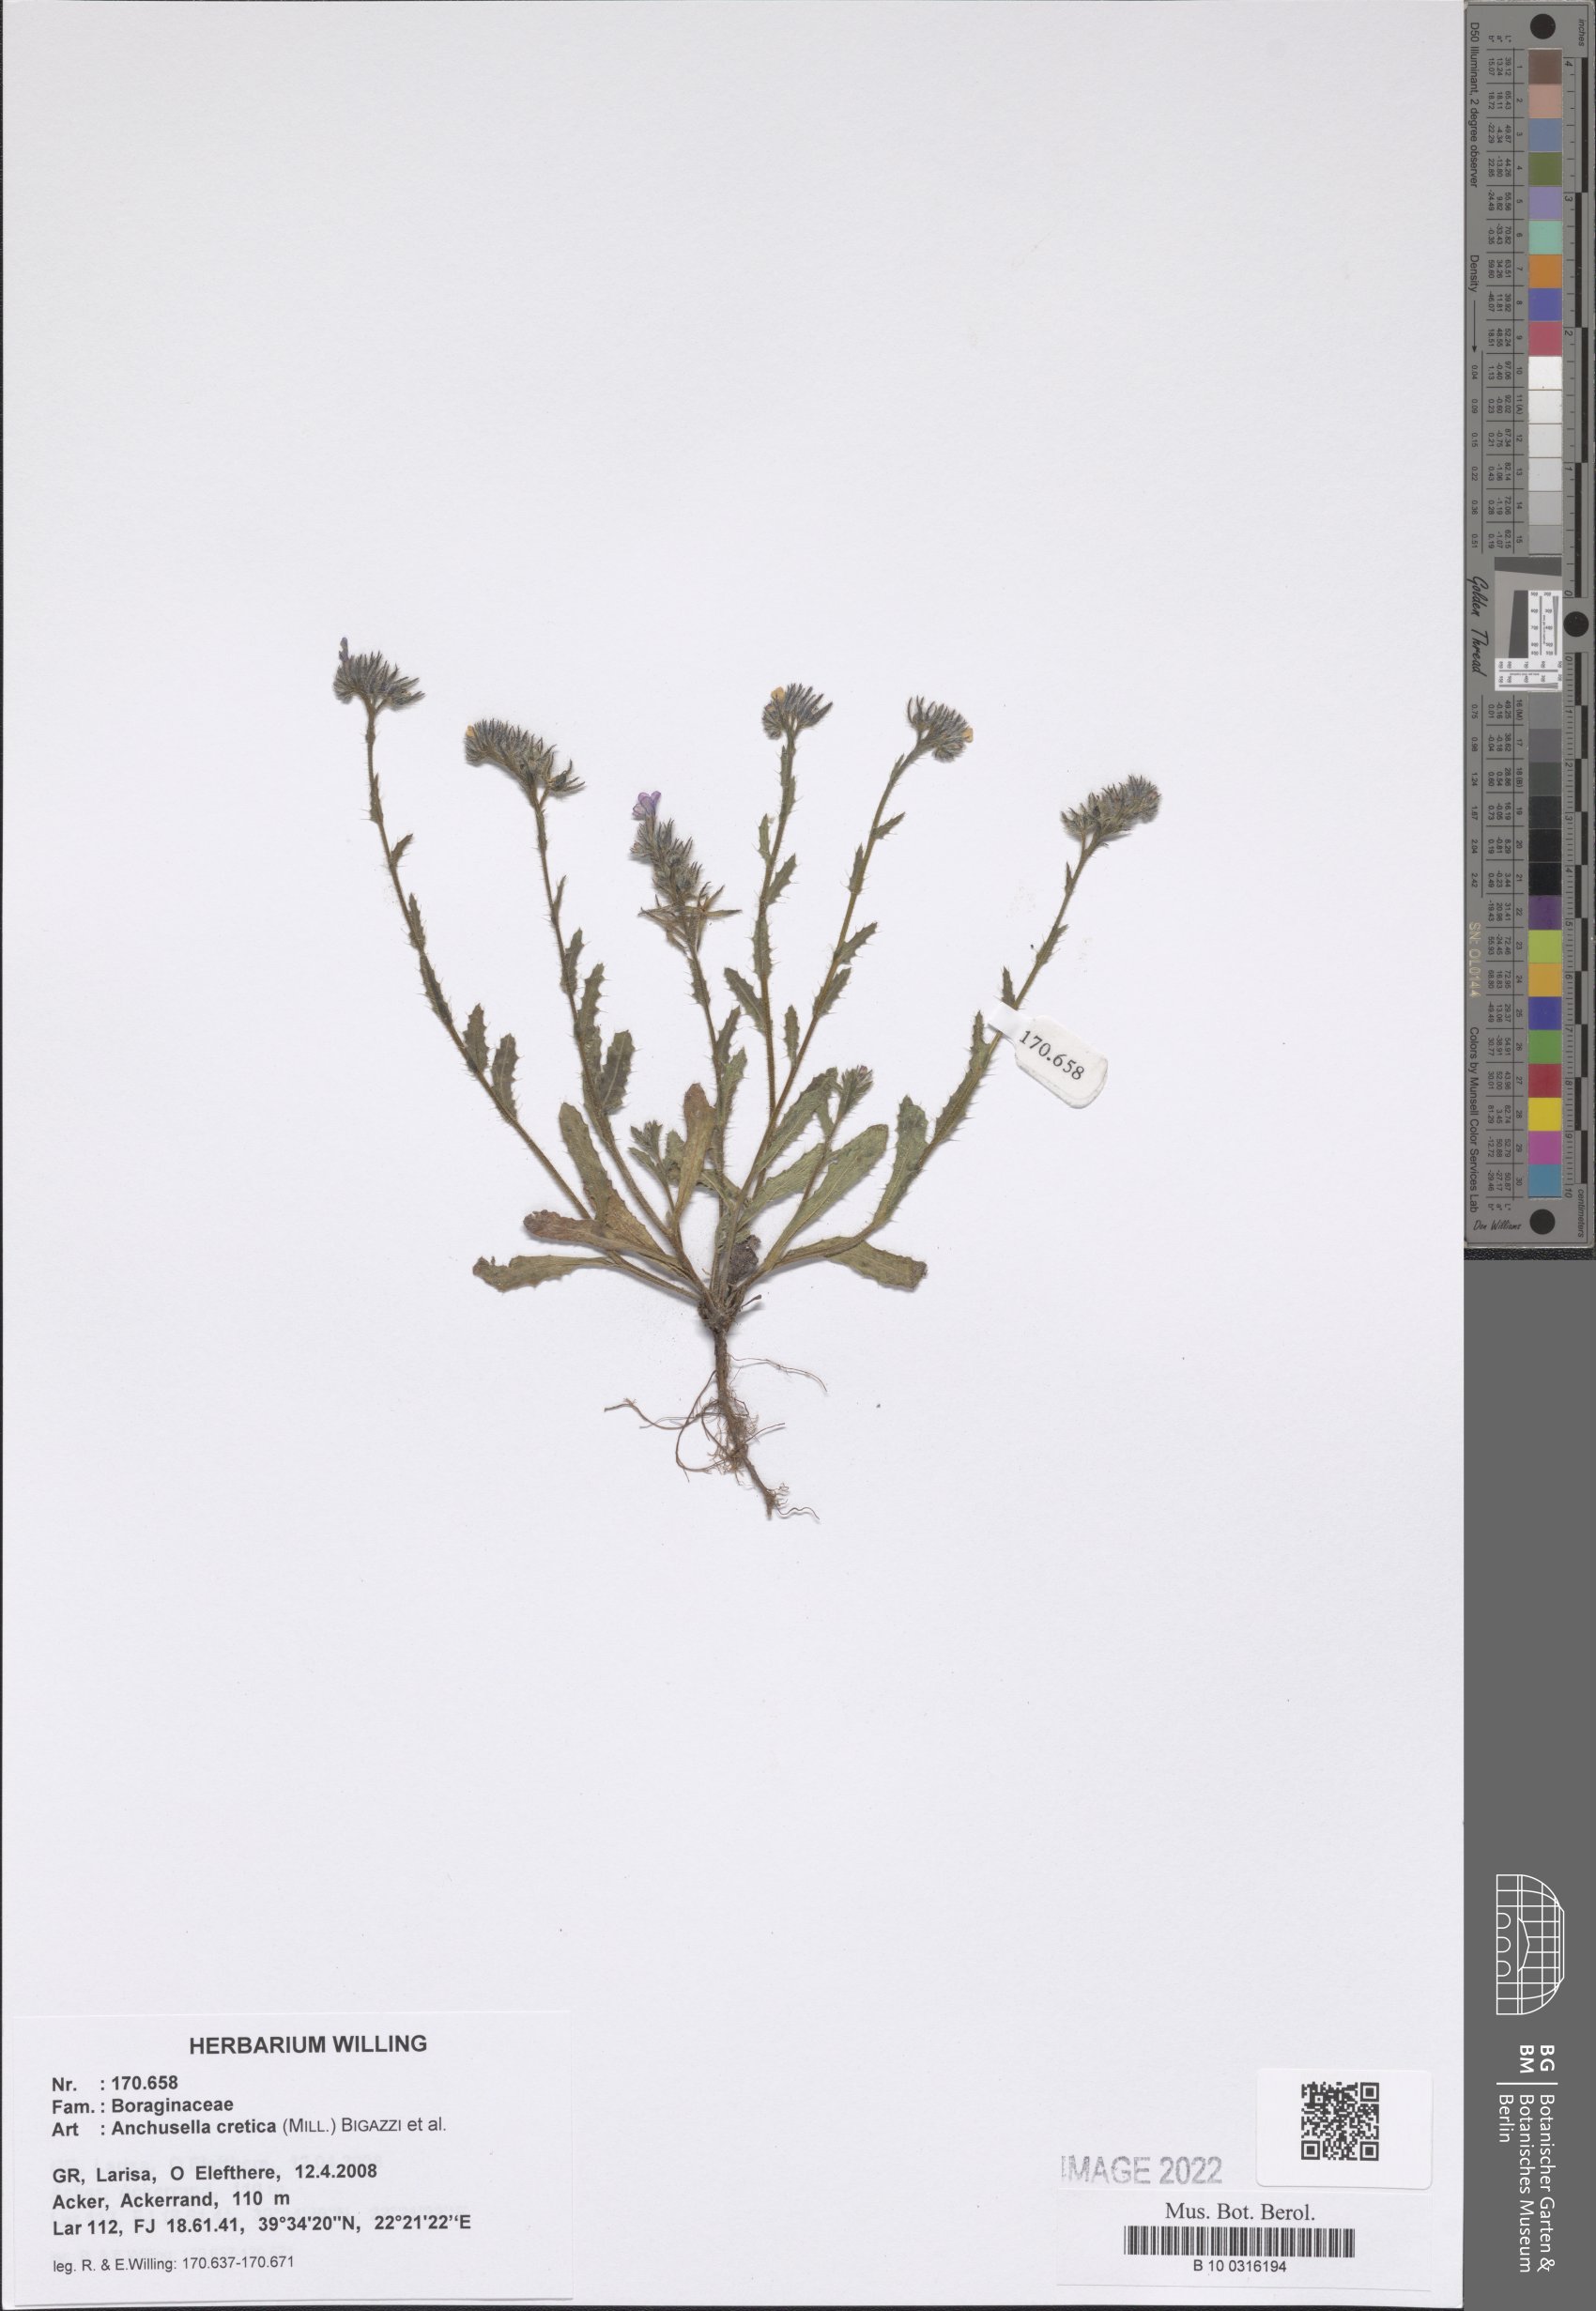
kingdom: Plantae
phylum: Tracheophyta
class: Magnoliopsida
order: Boraginales
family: Boraginaceae
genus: Anchusella
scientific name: Anchusella cretica
